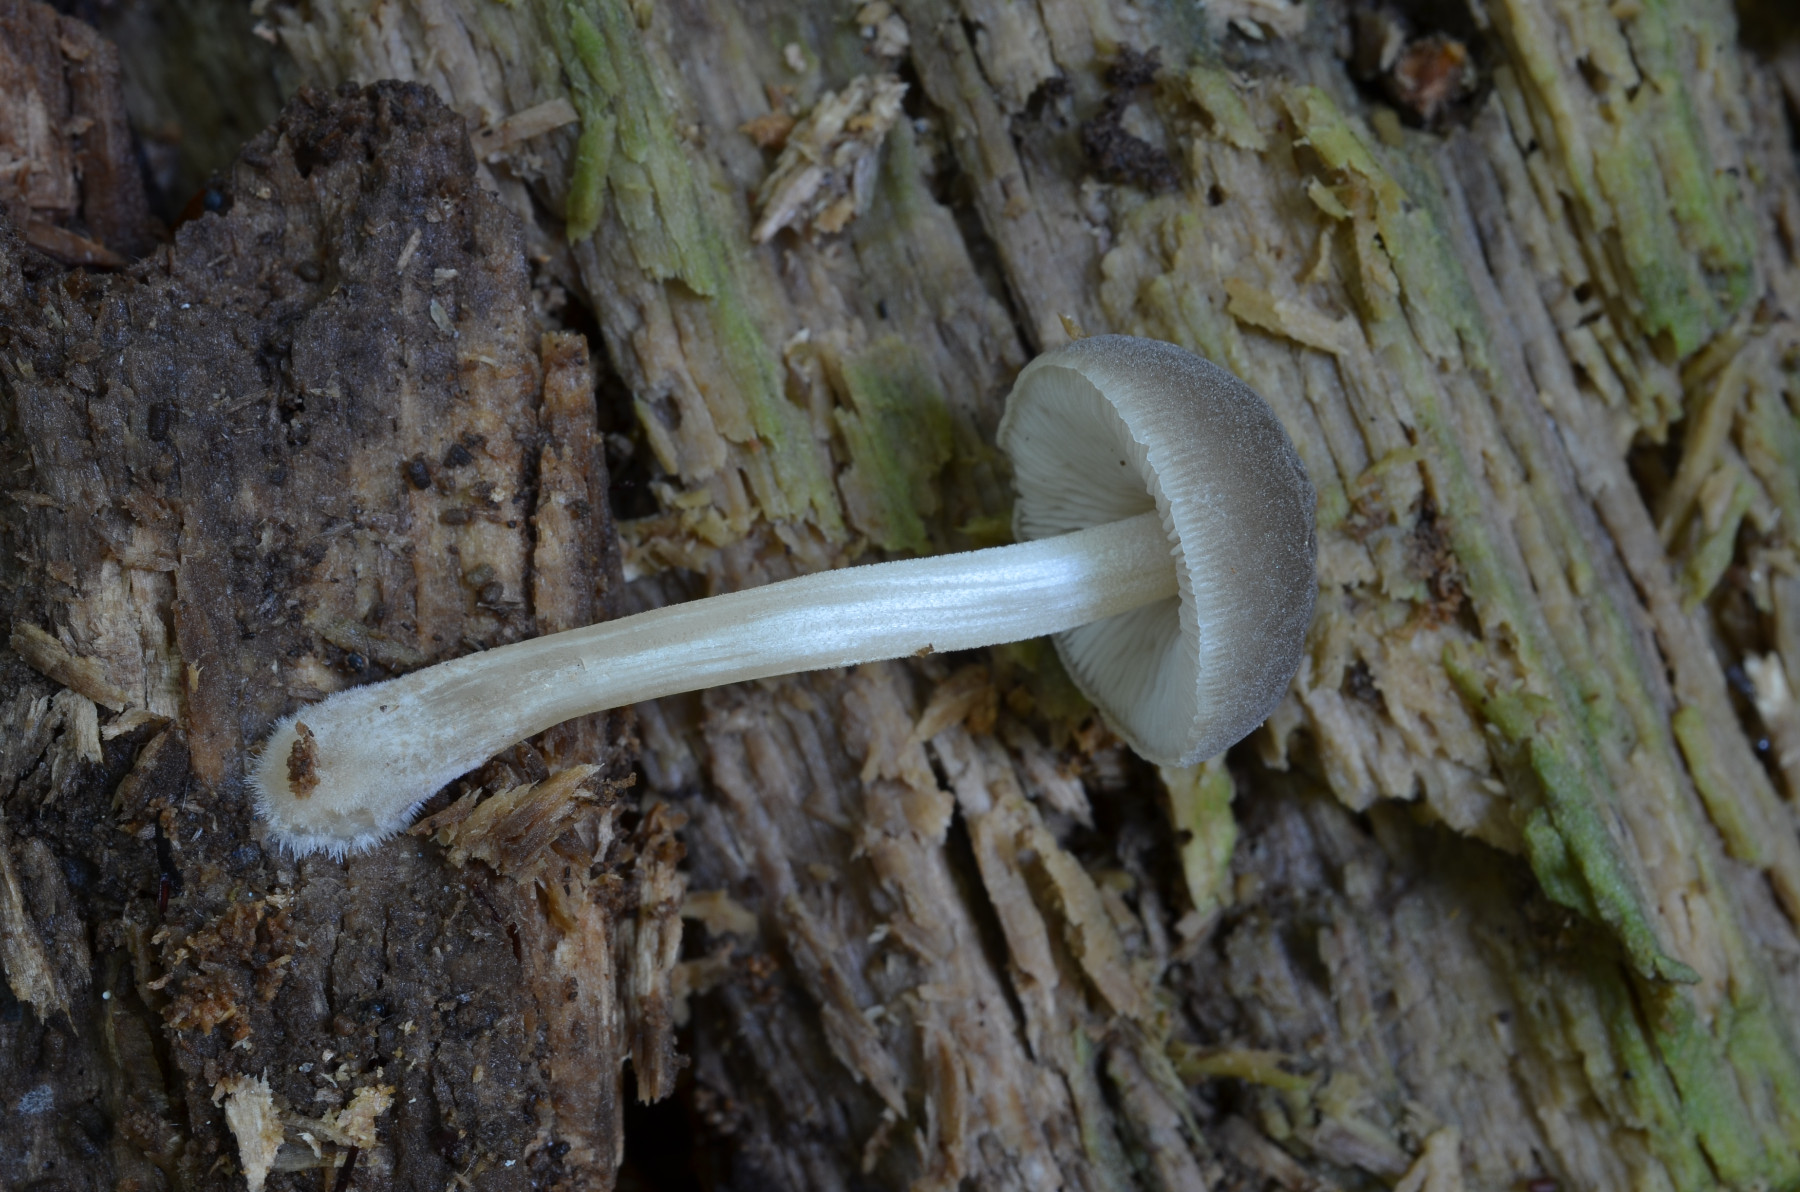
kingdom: Fungi
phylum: Basidiomycota
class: Agaricomycetes
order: Agaricales
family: Pluteaceae
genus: Pluteus
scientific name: Pluteus plautus
